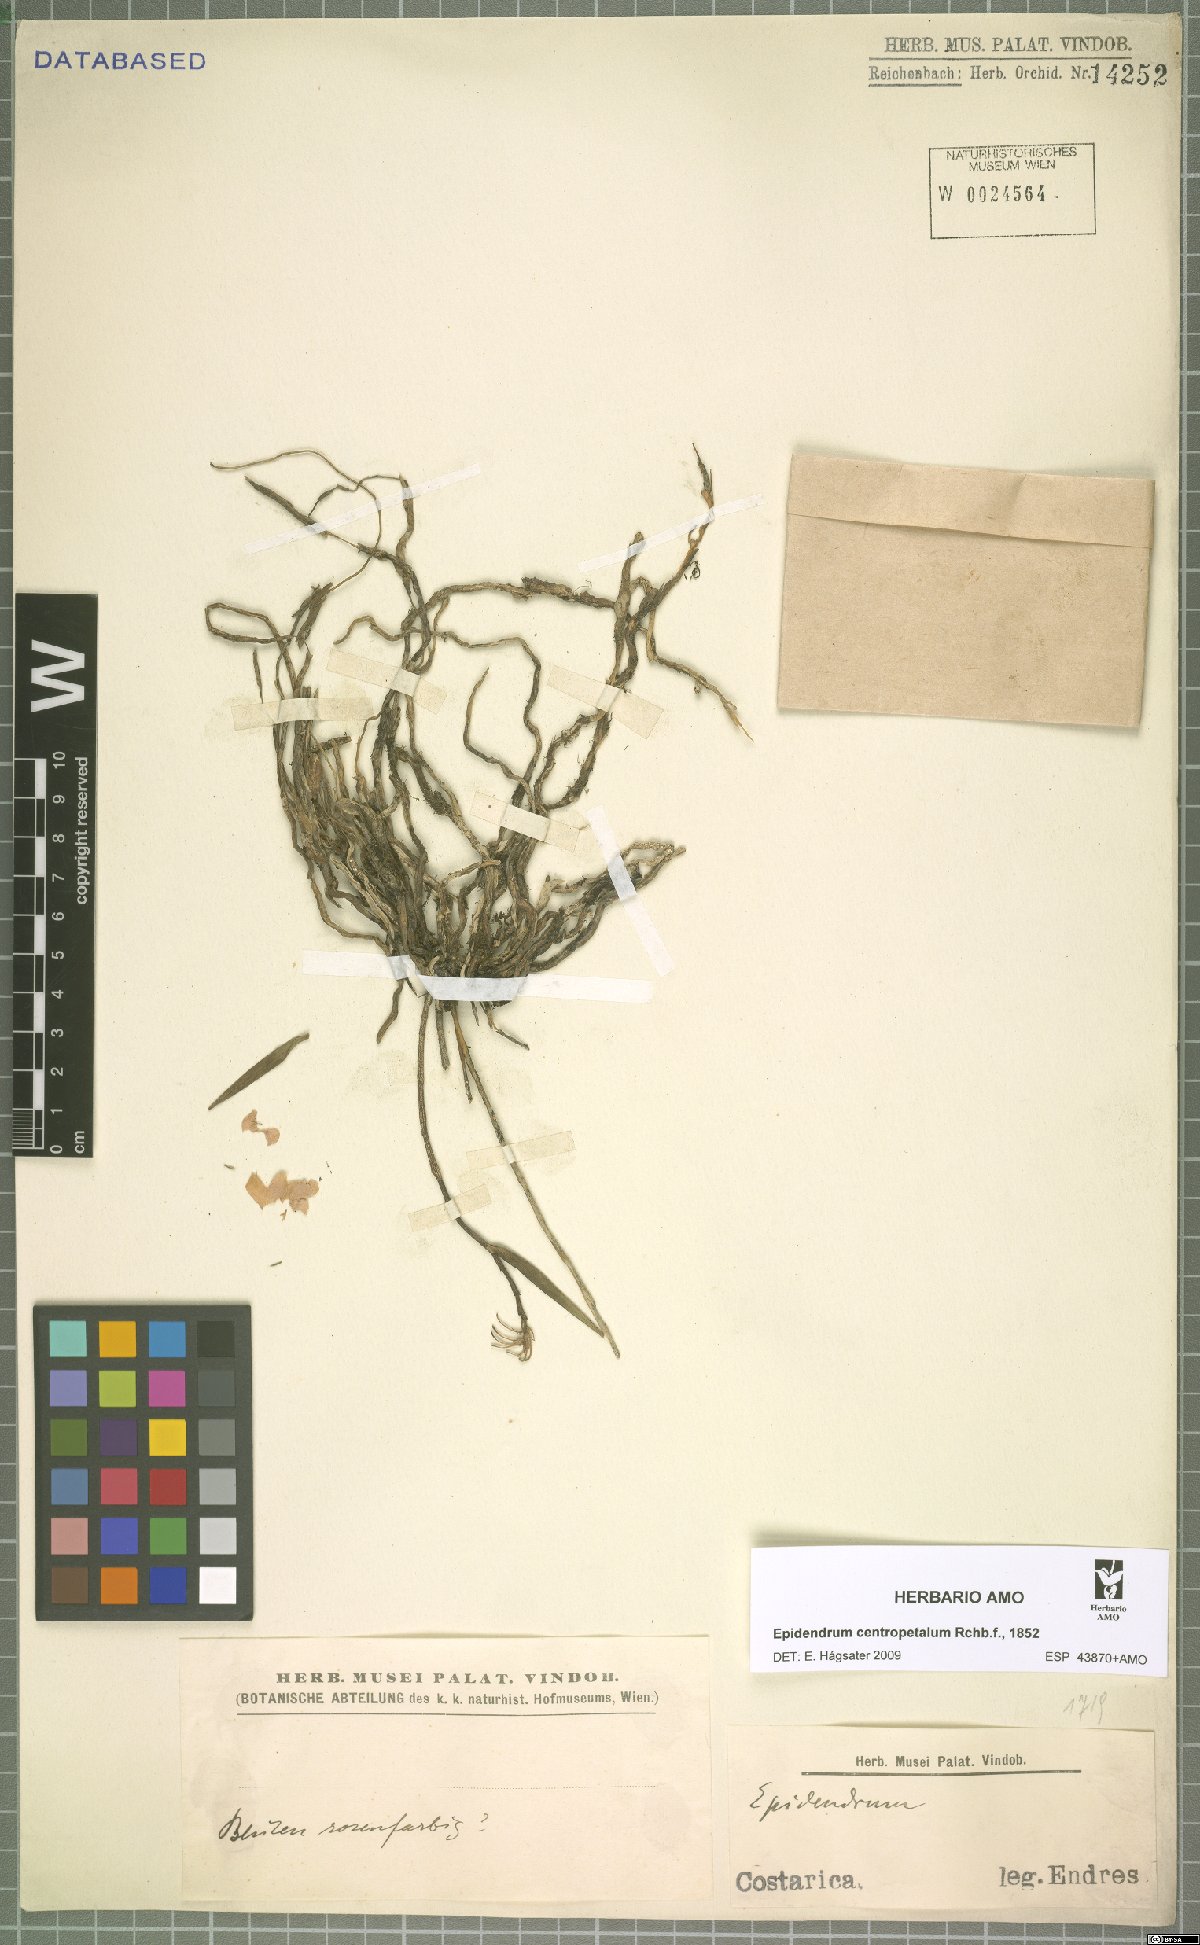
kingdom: Plantae
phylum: Tracheophyta
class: Liliopsida
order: Asparagales
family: Orchidaceae
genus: Epidendrum
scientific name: Epidendrum centropetalum
